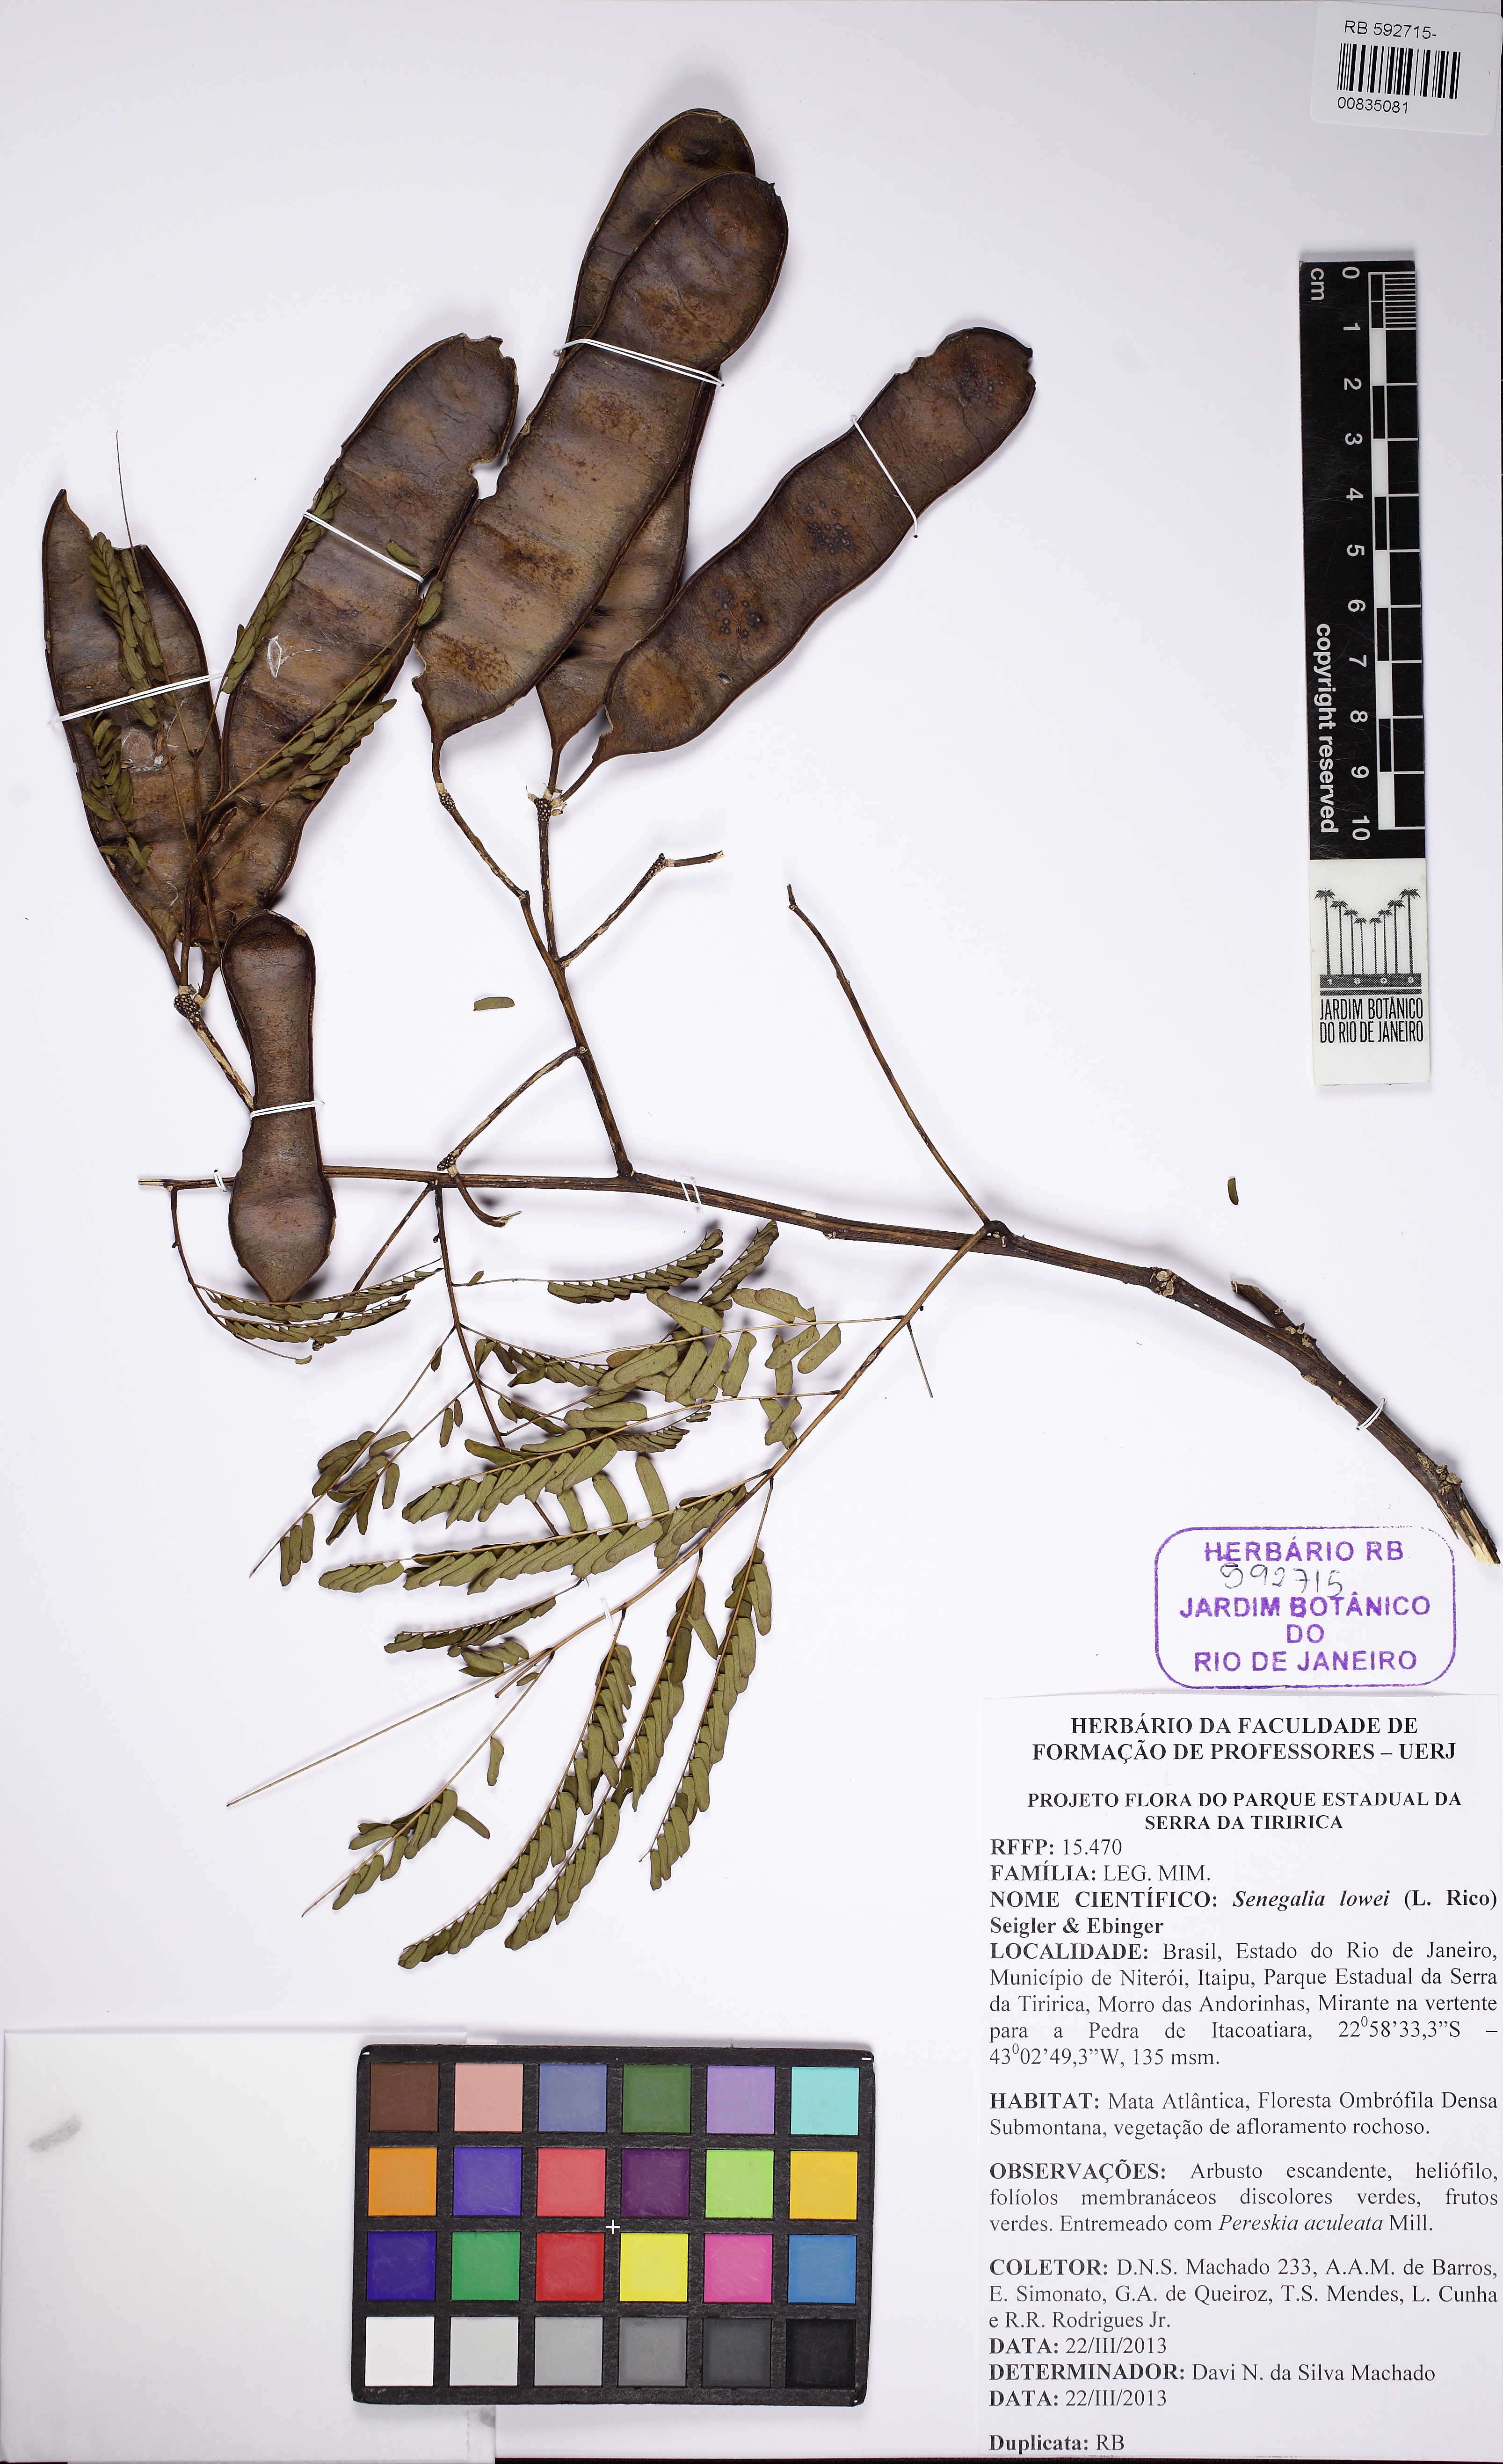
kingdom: Plantae
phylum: Tracheophyta
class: Magnoliopsida
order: Fabales
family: Fabaceae
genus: Senegalia
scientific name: Senegalia duartei
